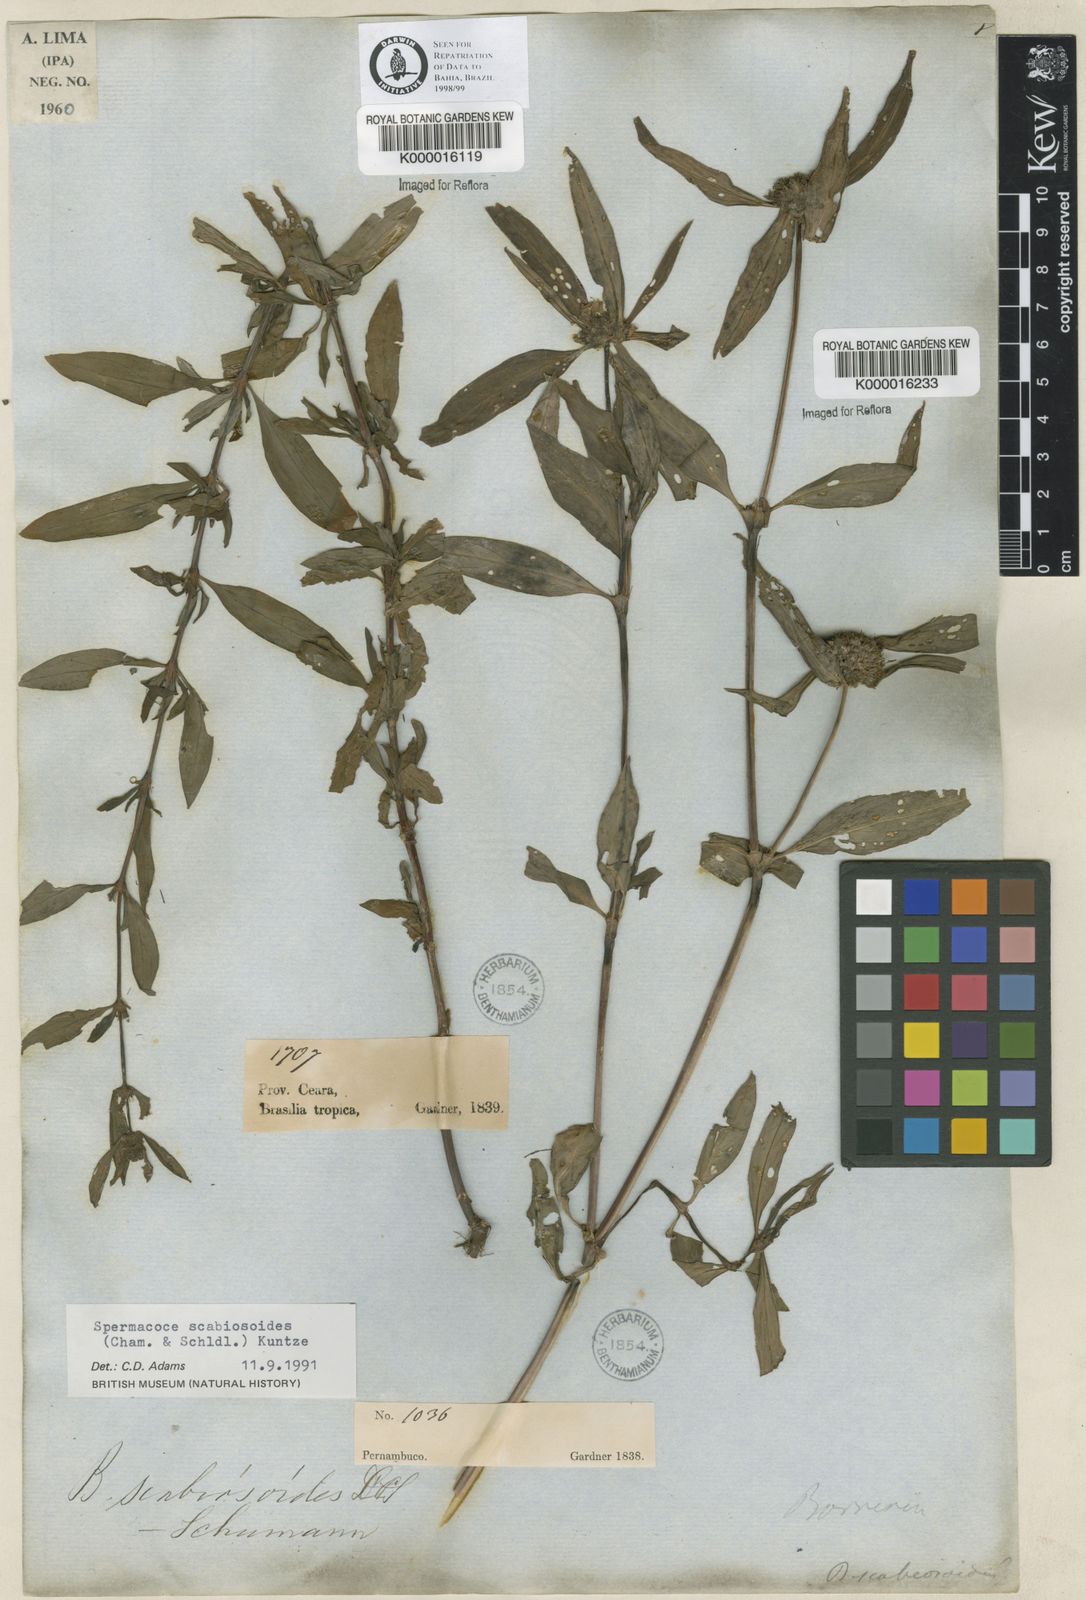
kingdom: Plantae
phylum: Tracheophyta
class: Magnoliopsida
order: Gentianales
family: Rubiaceae
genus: Spermacoce
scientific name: Spermacoce scabiosoides
